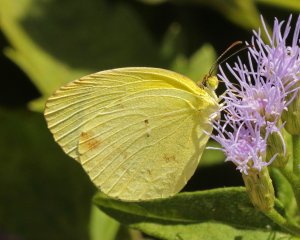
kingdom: Animalia
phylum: Arthropoda
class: Insecta
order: Lepidoptera
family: Pieridae
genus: Pyrisitia
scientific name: Pyrisitia nise
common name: Mimosa Yellow
